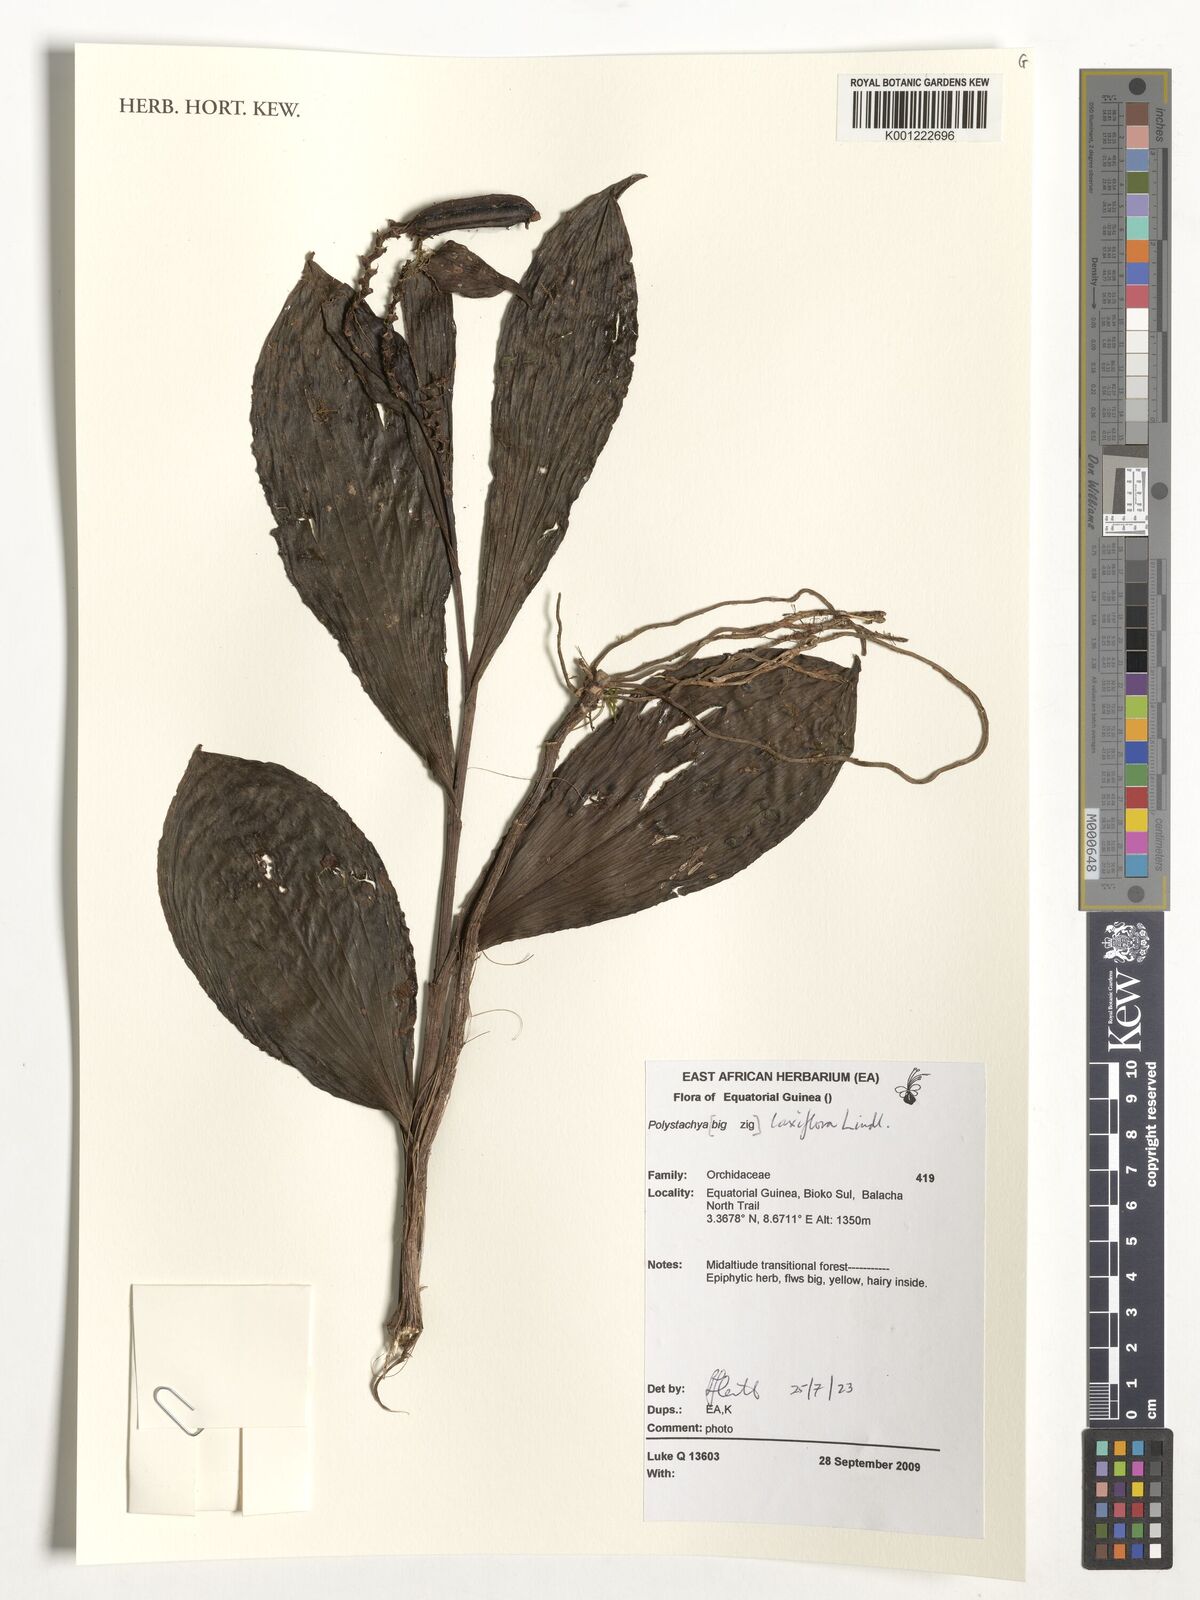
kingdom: Plantae
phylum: Tracheophyta
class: Liliopsida
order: Asparagales
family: Orchidaceae
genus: Polystachya
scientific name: Polystachya laxiflora
